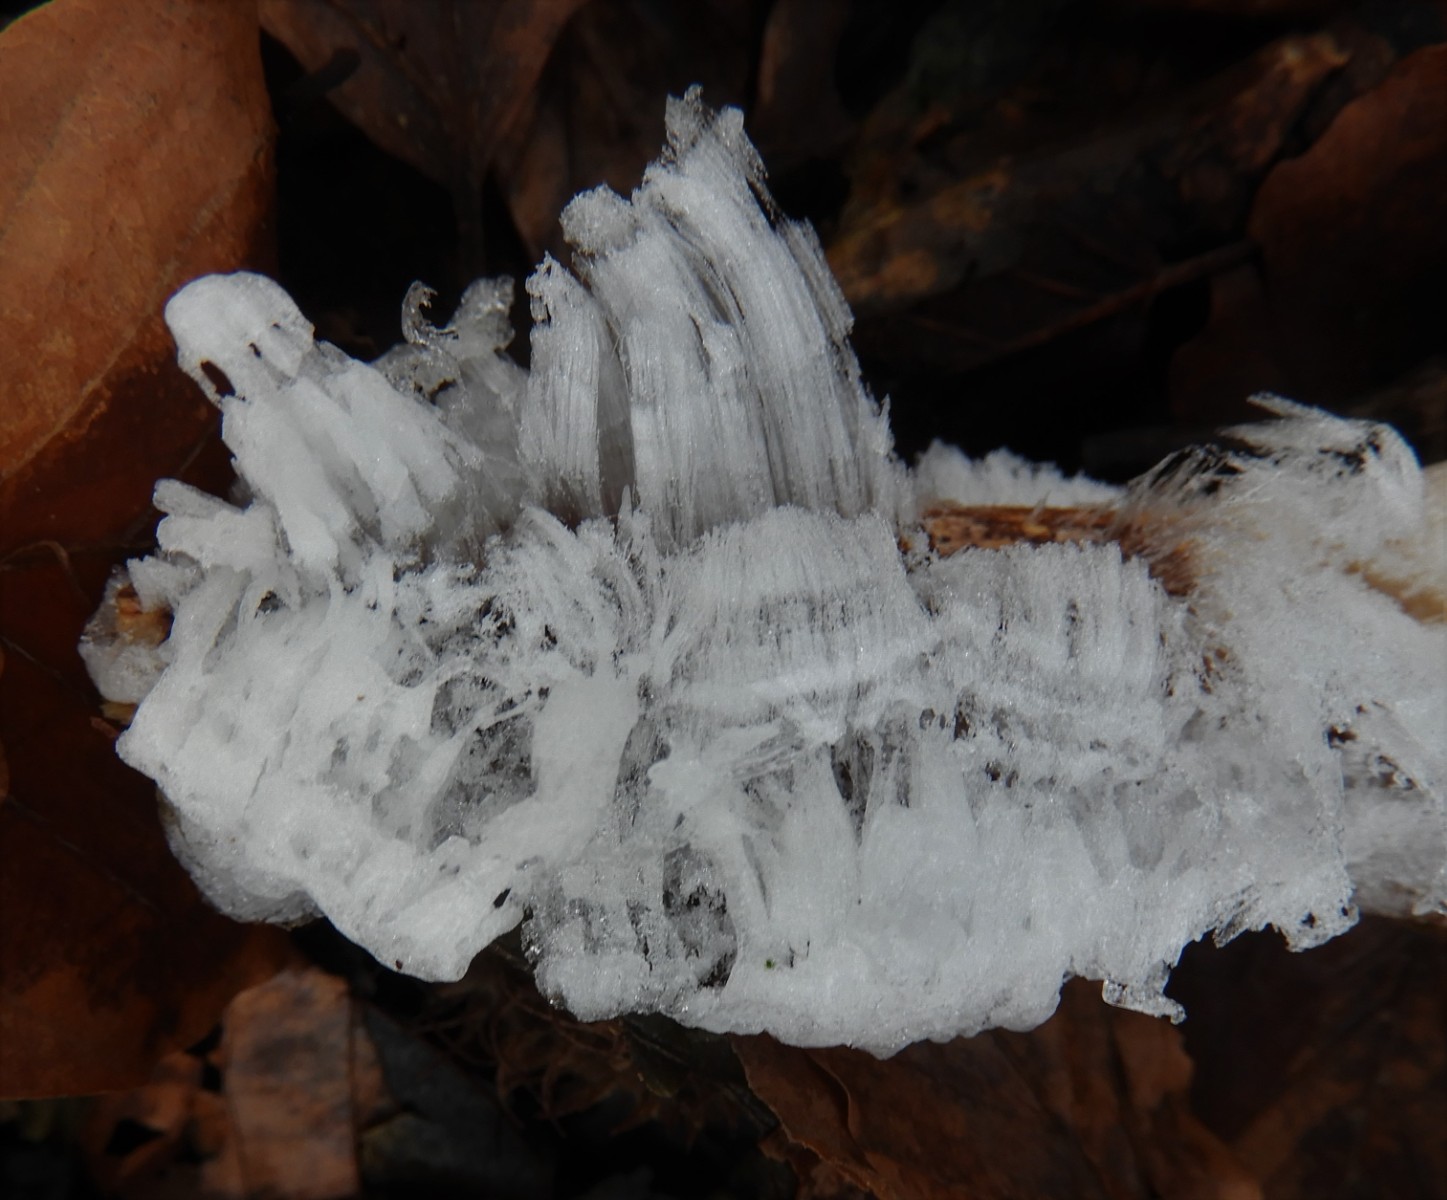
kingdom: Fungi
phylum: Basidiomycota
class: Tremellomycetes
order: Tremellales
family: Exidiaceae
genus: Exidiopsis
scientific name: Exidiopsis effusa
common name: smuk bævrehinde
